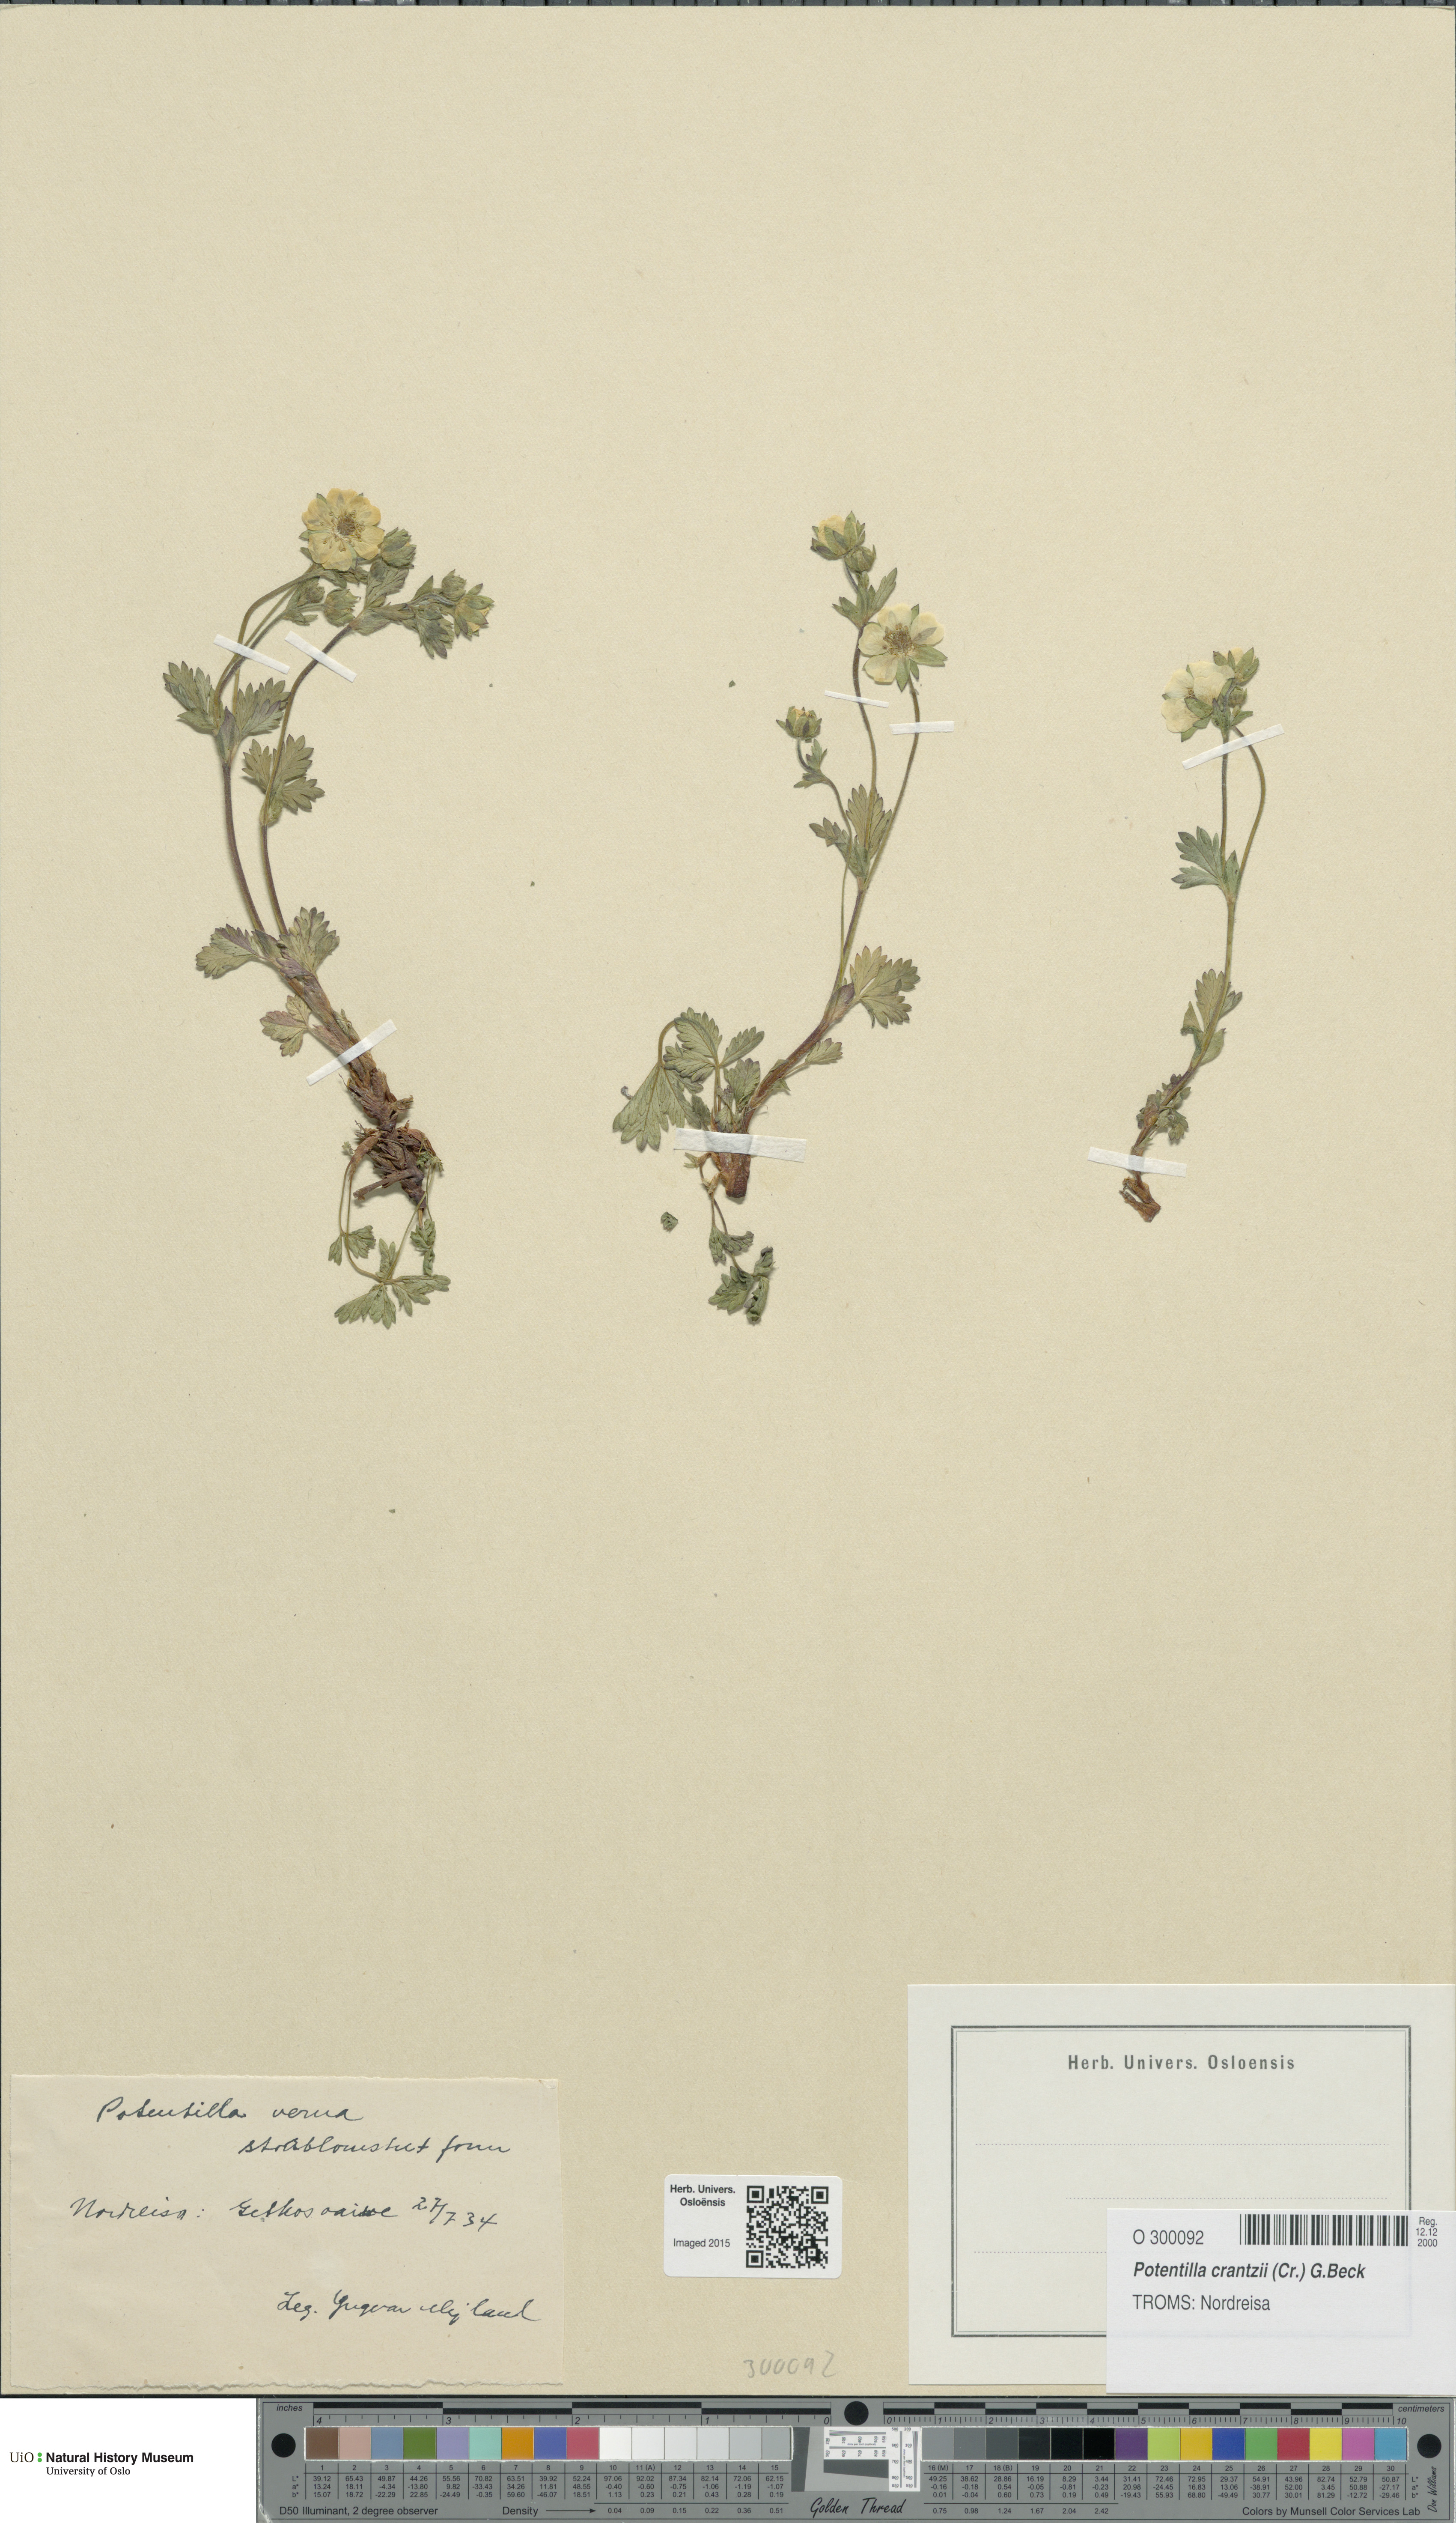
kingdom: Plantae
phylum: Tracheophyta
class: Magnoliopsida
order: Rosales
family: Rosaceae
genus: Potentilla
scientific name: Potentilla verna
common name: Spring cinquefoil
